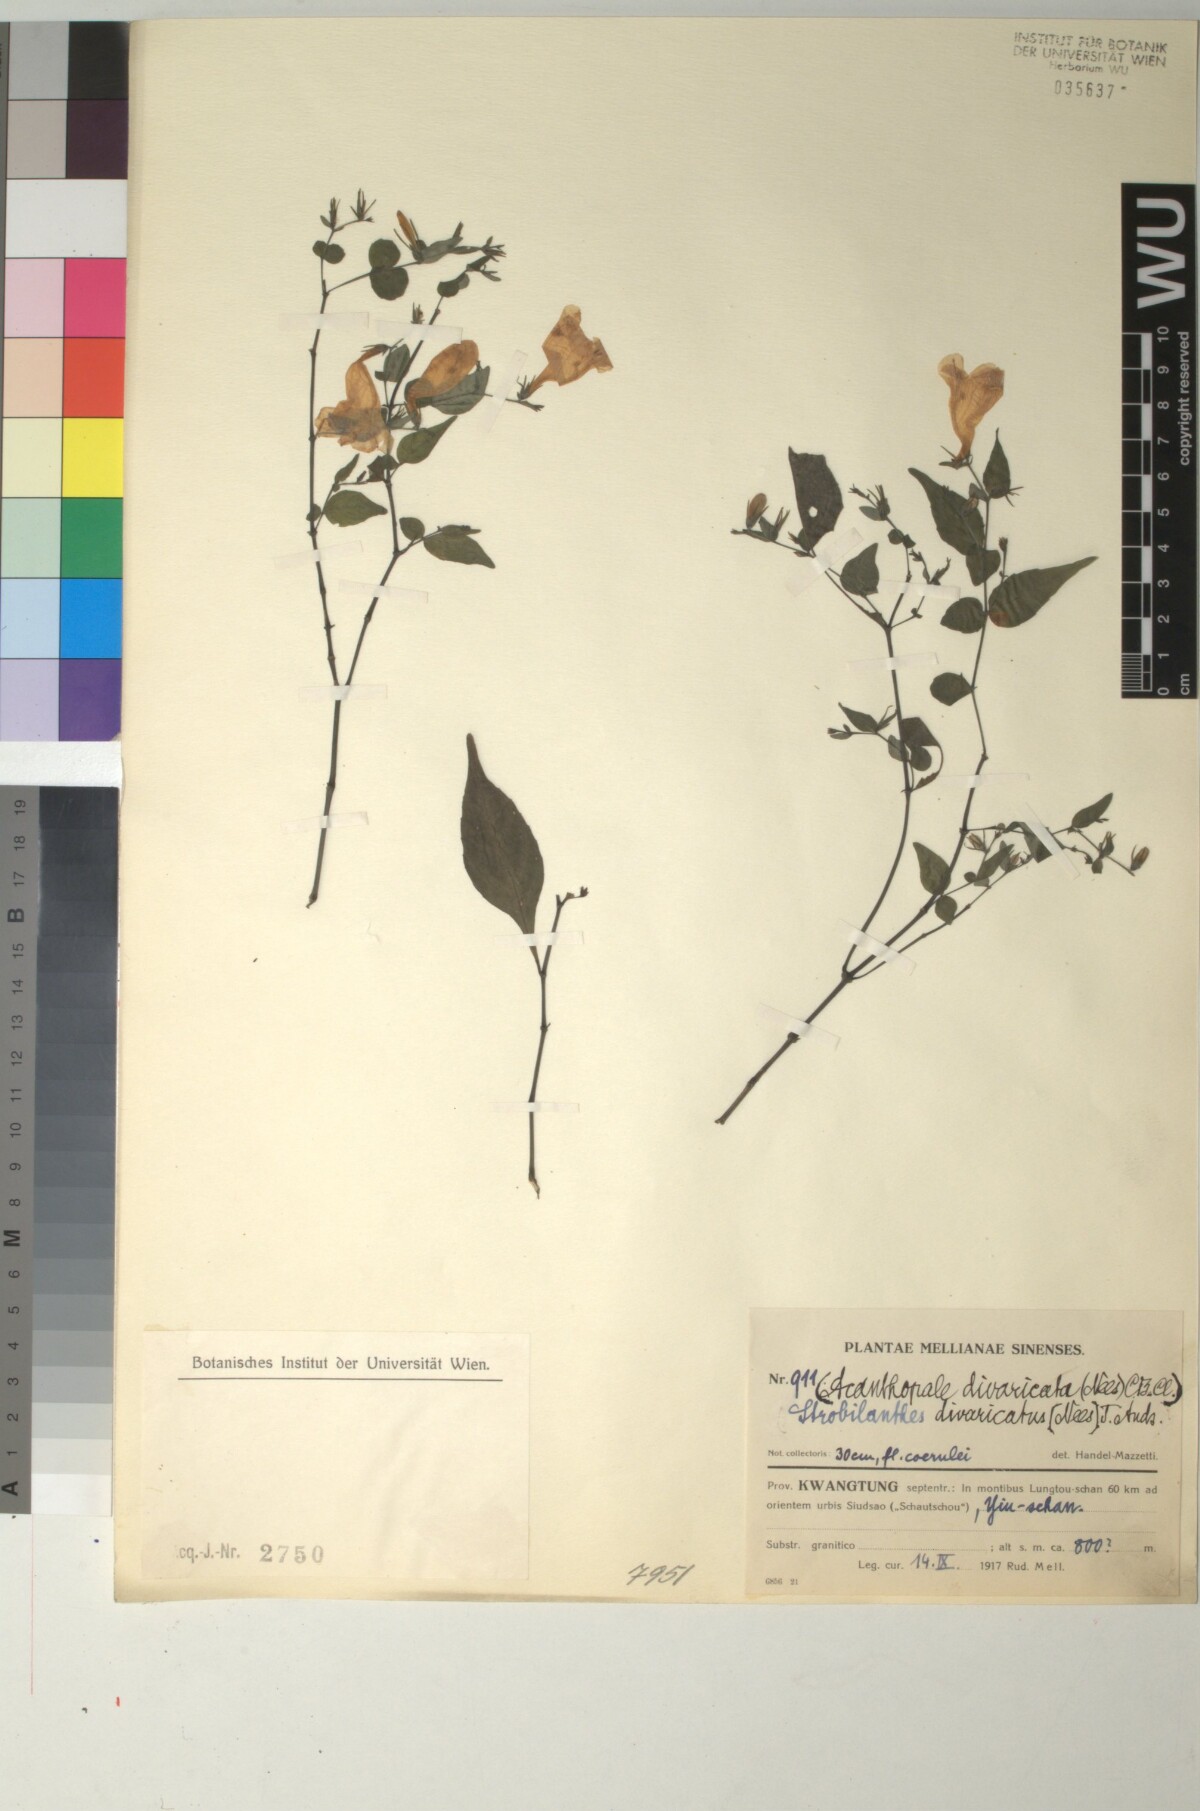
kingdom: Plantae
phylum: Tracheophyta
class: Magnoliopsida
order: Lamiales
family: Acanthaceae
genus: Strobilanthes
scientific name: Strobilanthes divaricata
